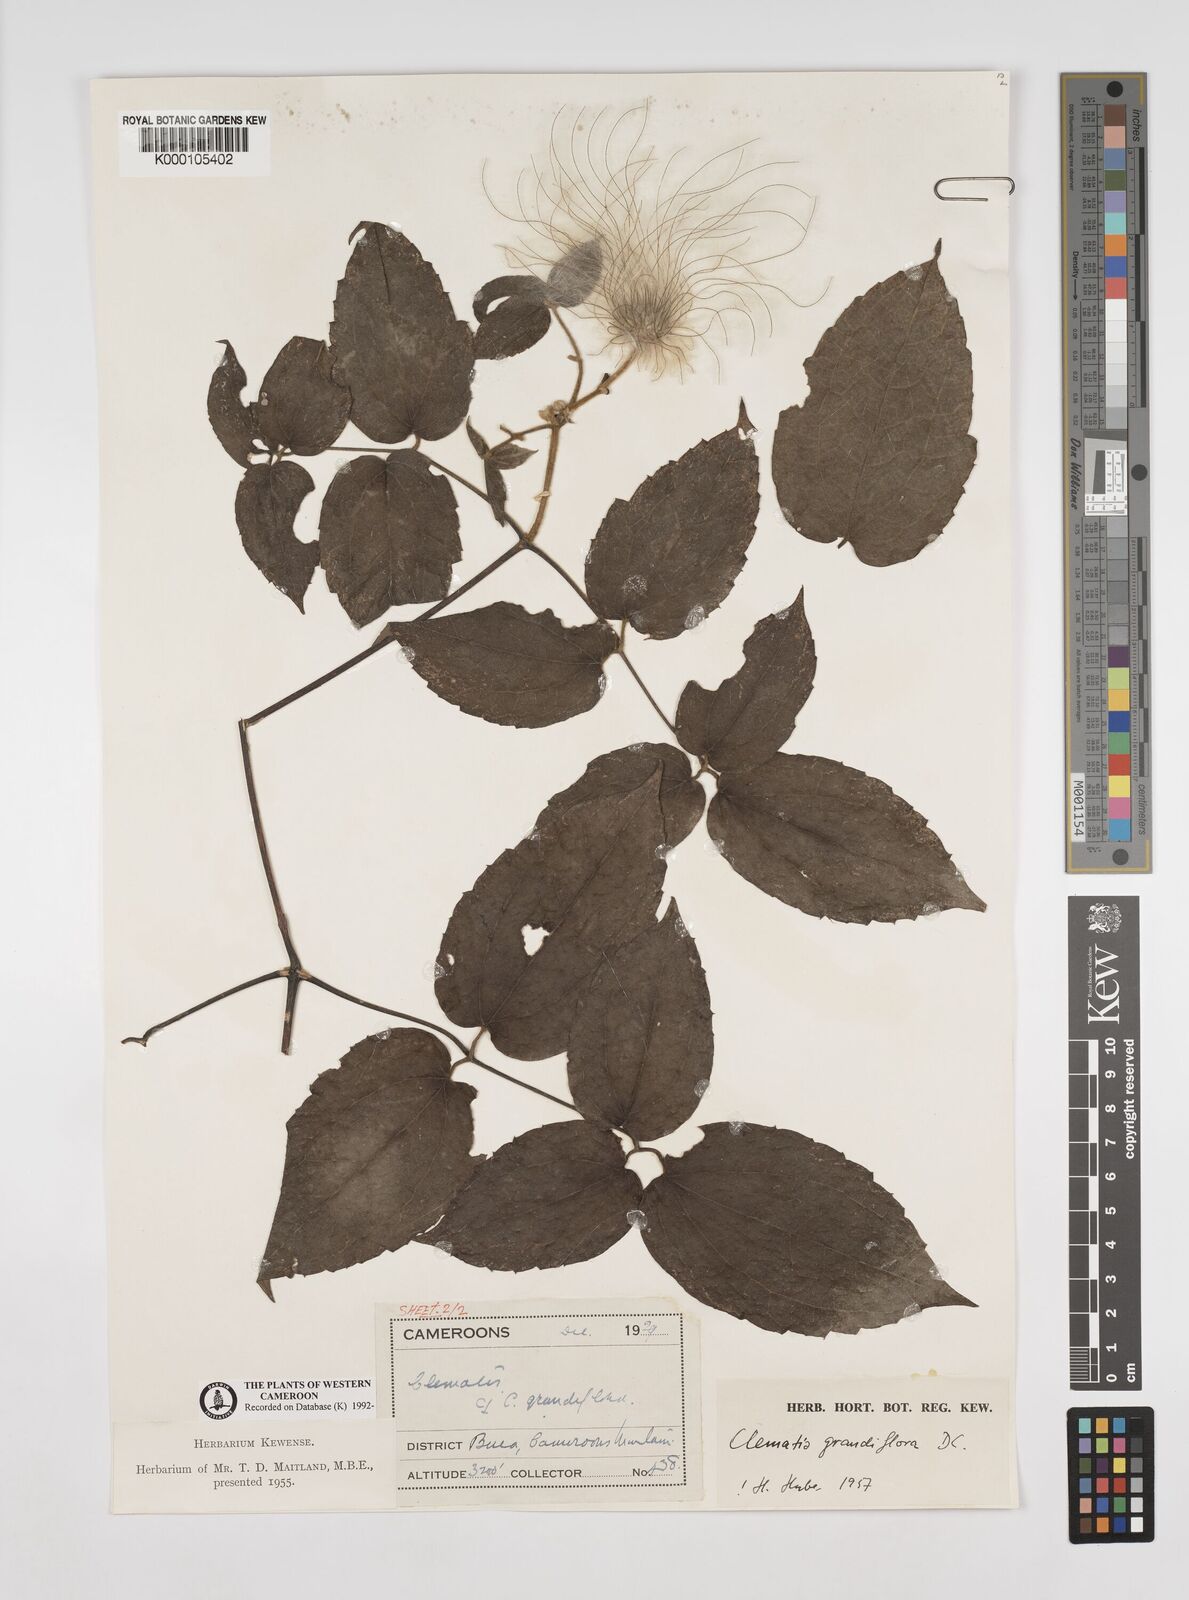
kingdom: Plantae
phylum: Tracheophyta
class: Magnoliopsida
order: Ranunculales
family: Ranunculaceae
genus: Clematis
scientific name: Clematis grandiflora
